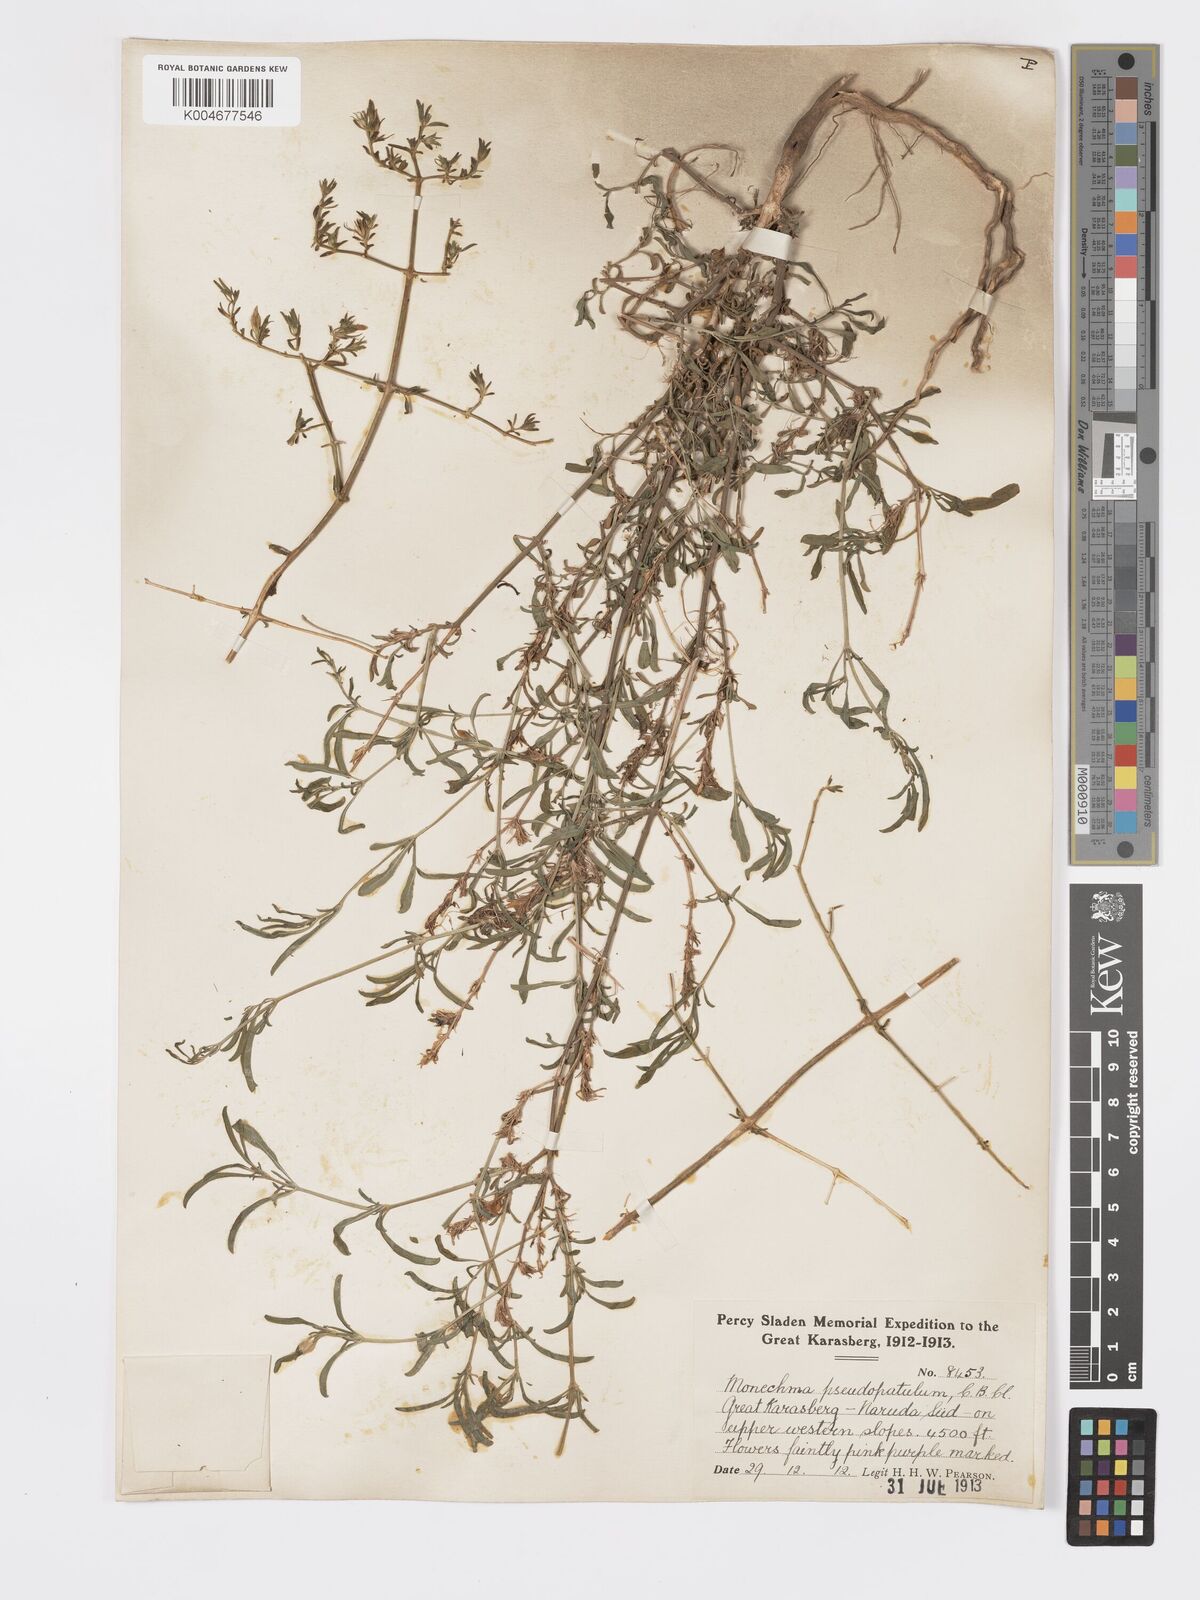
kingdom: Plantae
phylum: Tracheophyta
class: Magnoliopsida
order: Lamiales
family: Acanthaceae
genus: Pogonospermum
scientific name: Pogonospermum
